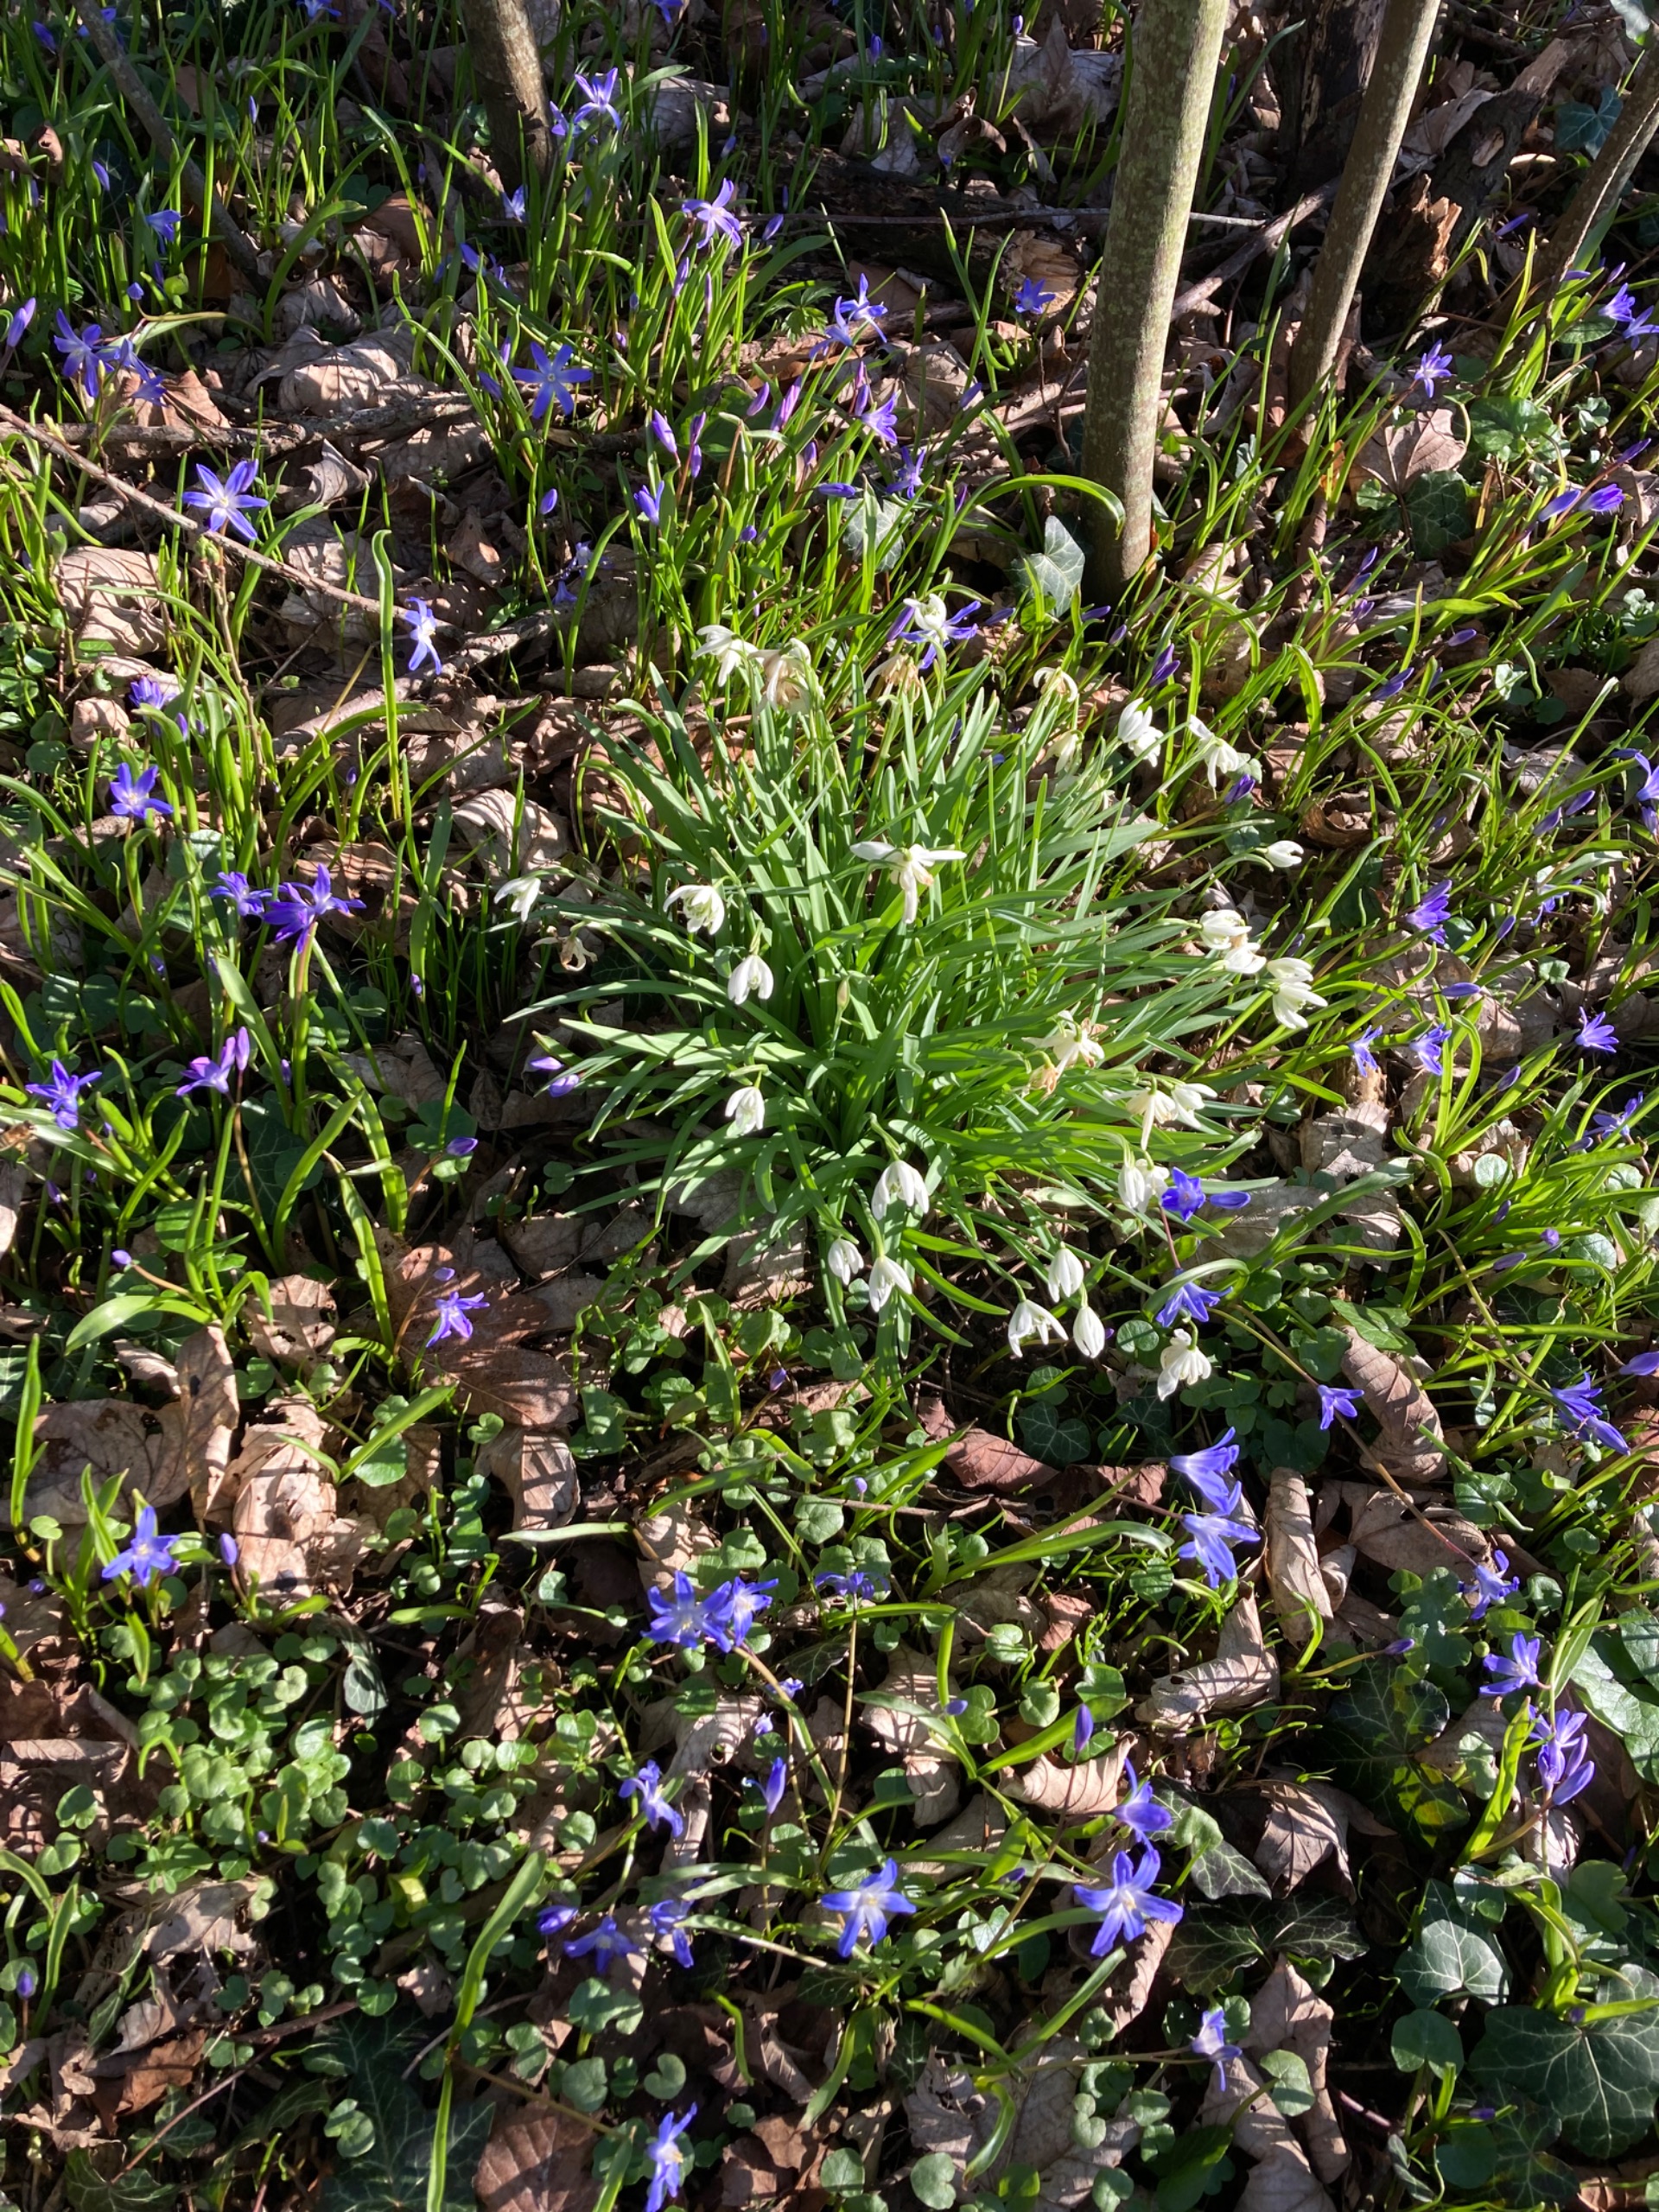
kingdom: Plantae
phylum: Tracheophyta
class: Liliopsida
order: Asparagales
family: Amaryllidaceae
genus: Galanthus
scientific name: Galanthus nivalis
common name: Vintergæk
